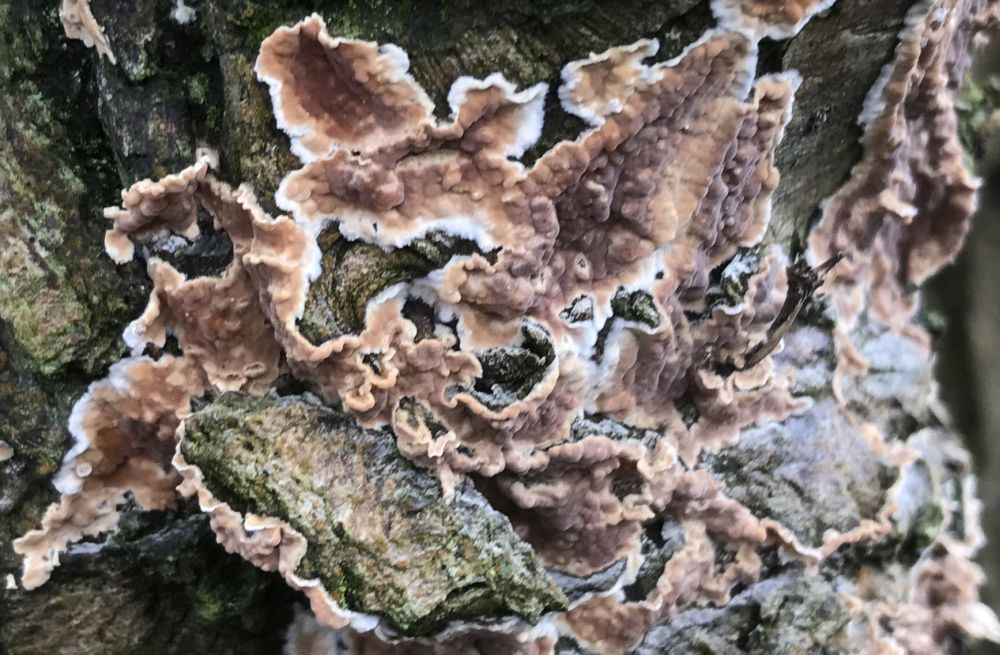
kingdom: Fungi
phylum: Basidiomycota
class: Agaricomycetes
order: Russulales
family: Stereaceae
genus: Stereum
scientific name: Stereum rugosum
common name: rynket lædersvamp
